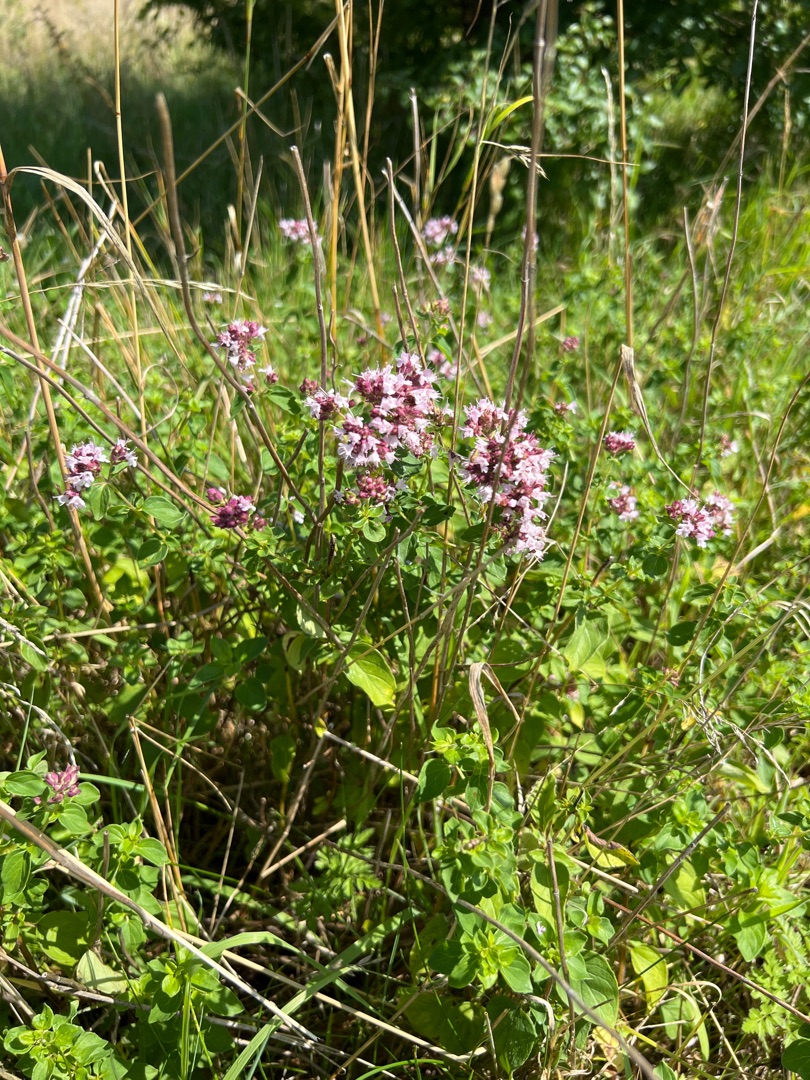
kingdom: Plantae
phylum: Tracheophyta
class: Magnoliopsida
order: Lamiales
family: Lamiaceae
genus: Origanum
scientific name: Origanum vulgare
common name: Merian
